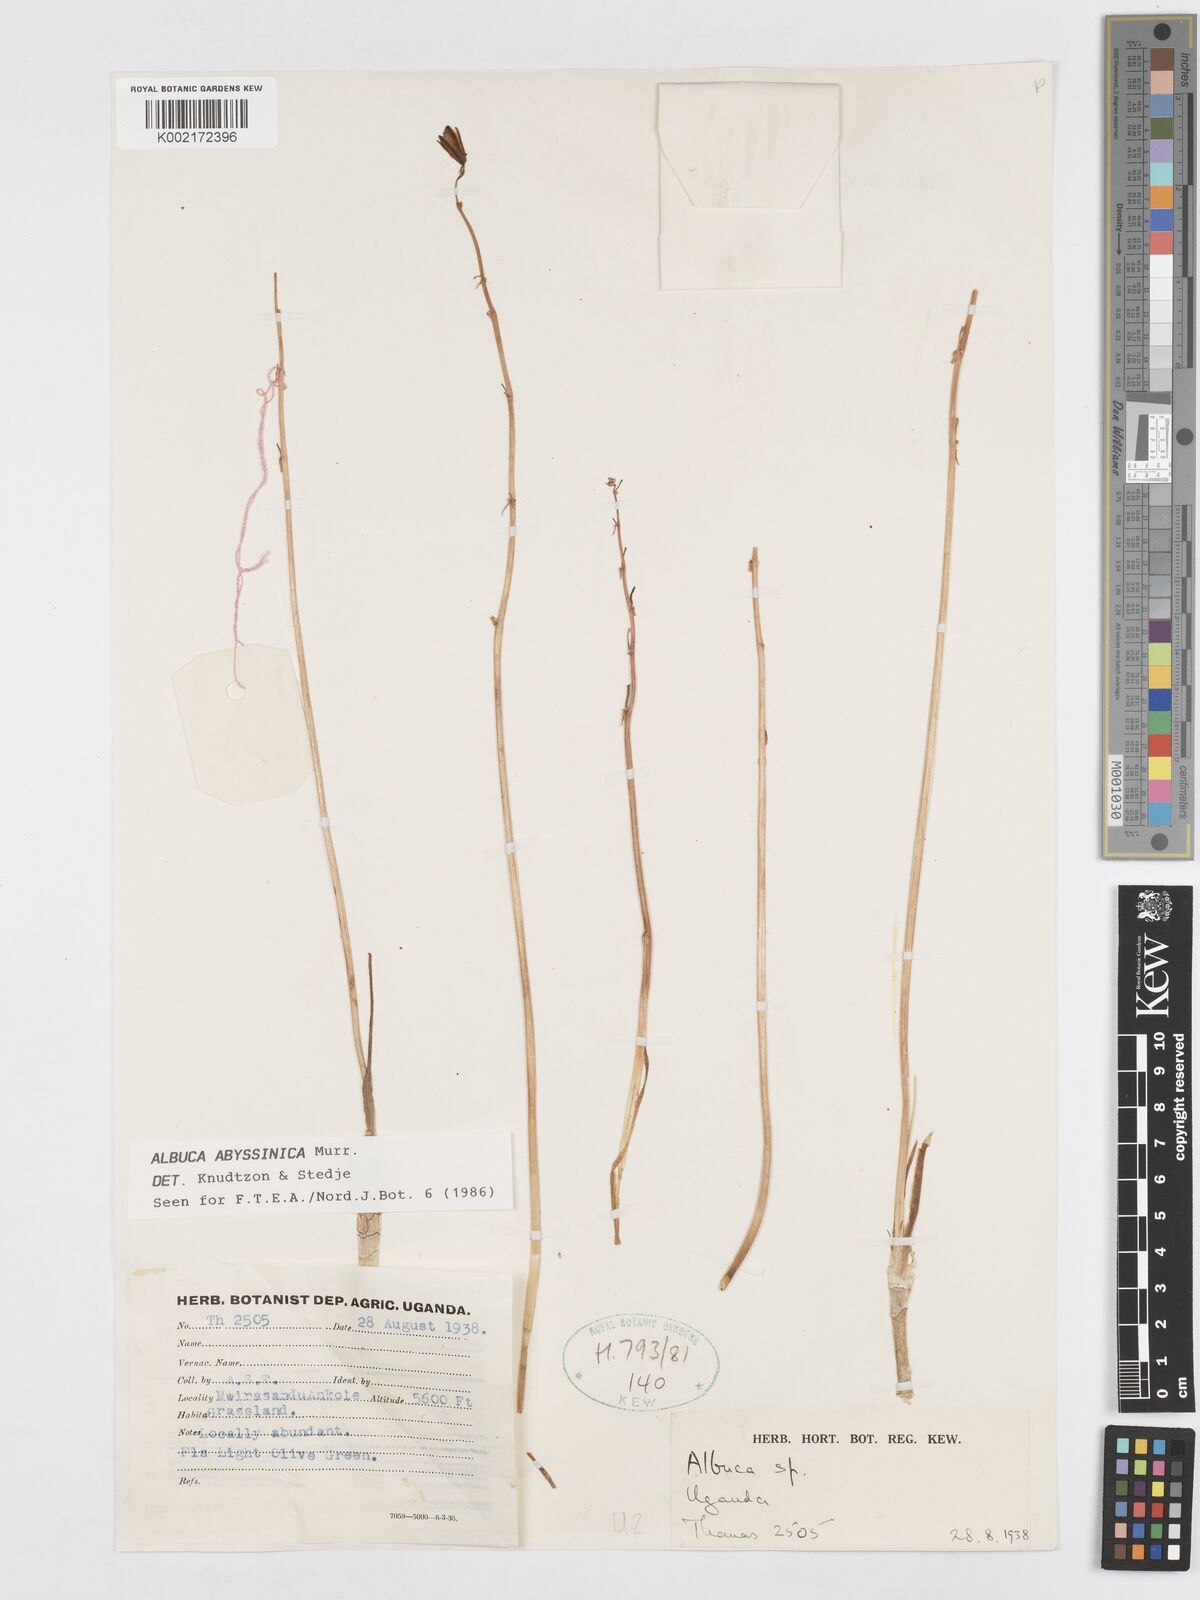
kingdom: Plantae
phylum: Tracheophyta
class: Liliopsida
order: Asparagales
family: Asparagaceae
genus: Albuca
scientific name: Albuca abyssinica
